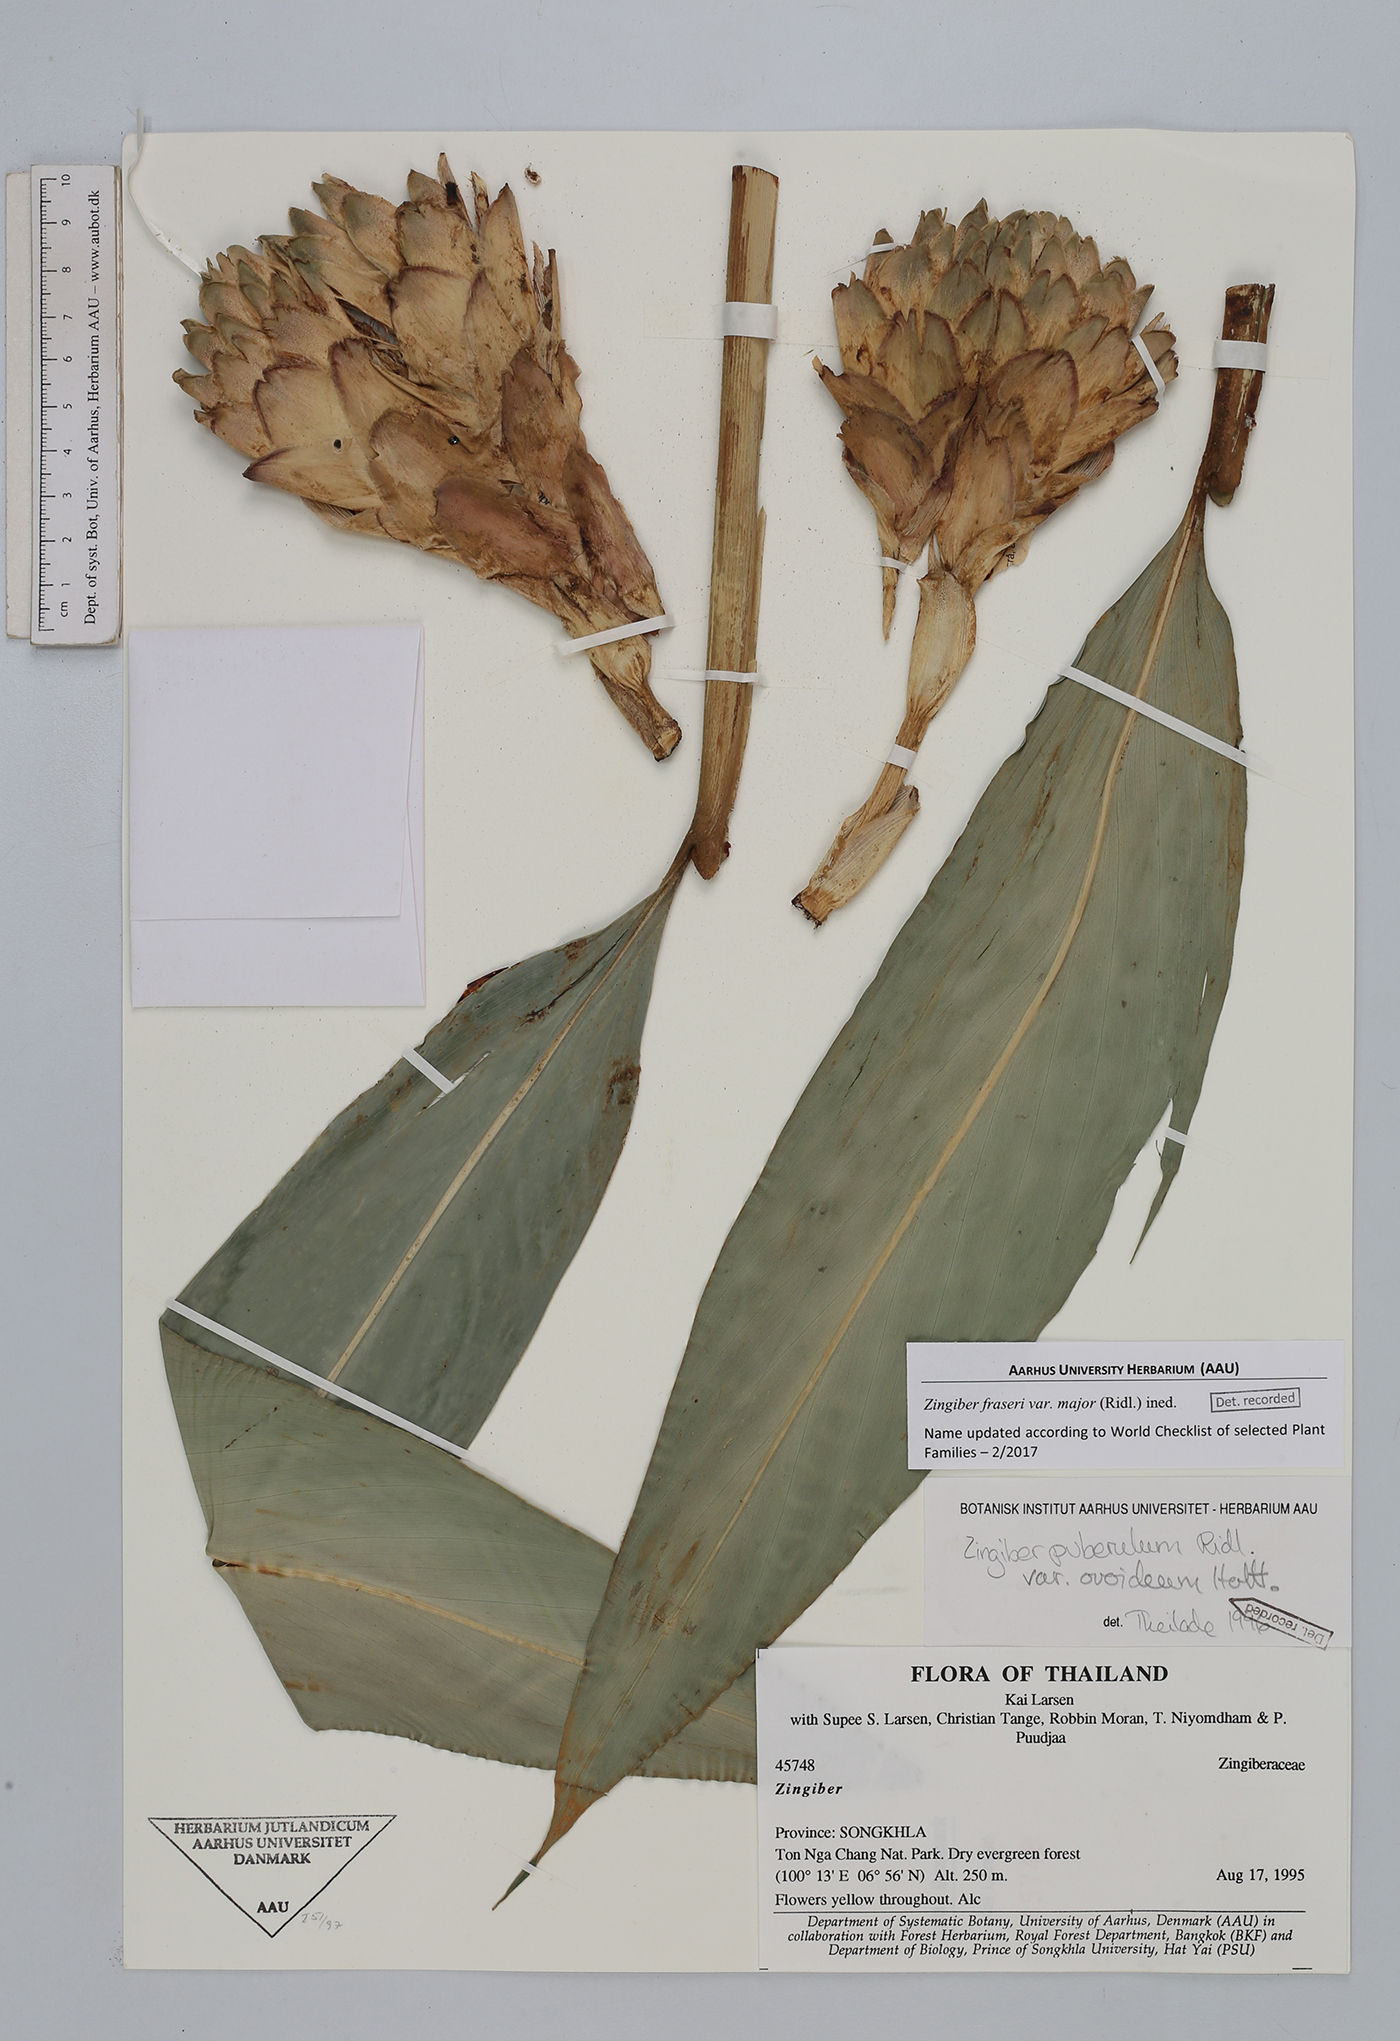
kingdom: Plantae
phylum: Tracheophyta
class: Liliopsida
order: Zingiberales
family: Zingiberaceae
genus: Zingiber
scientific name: Zingiber fraseri
